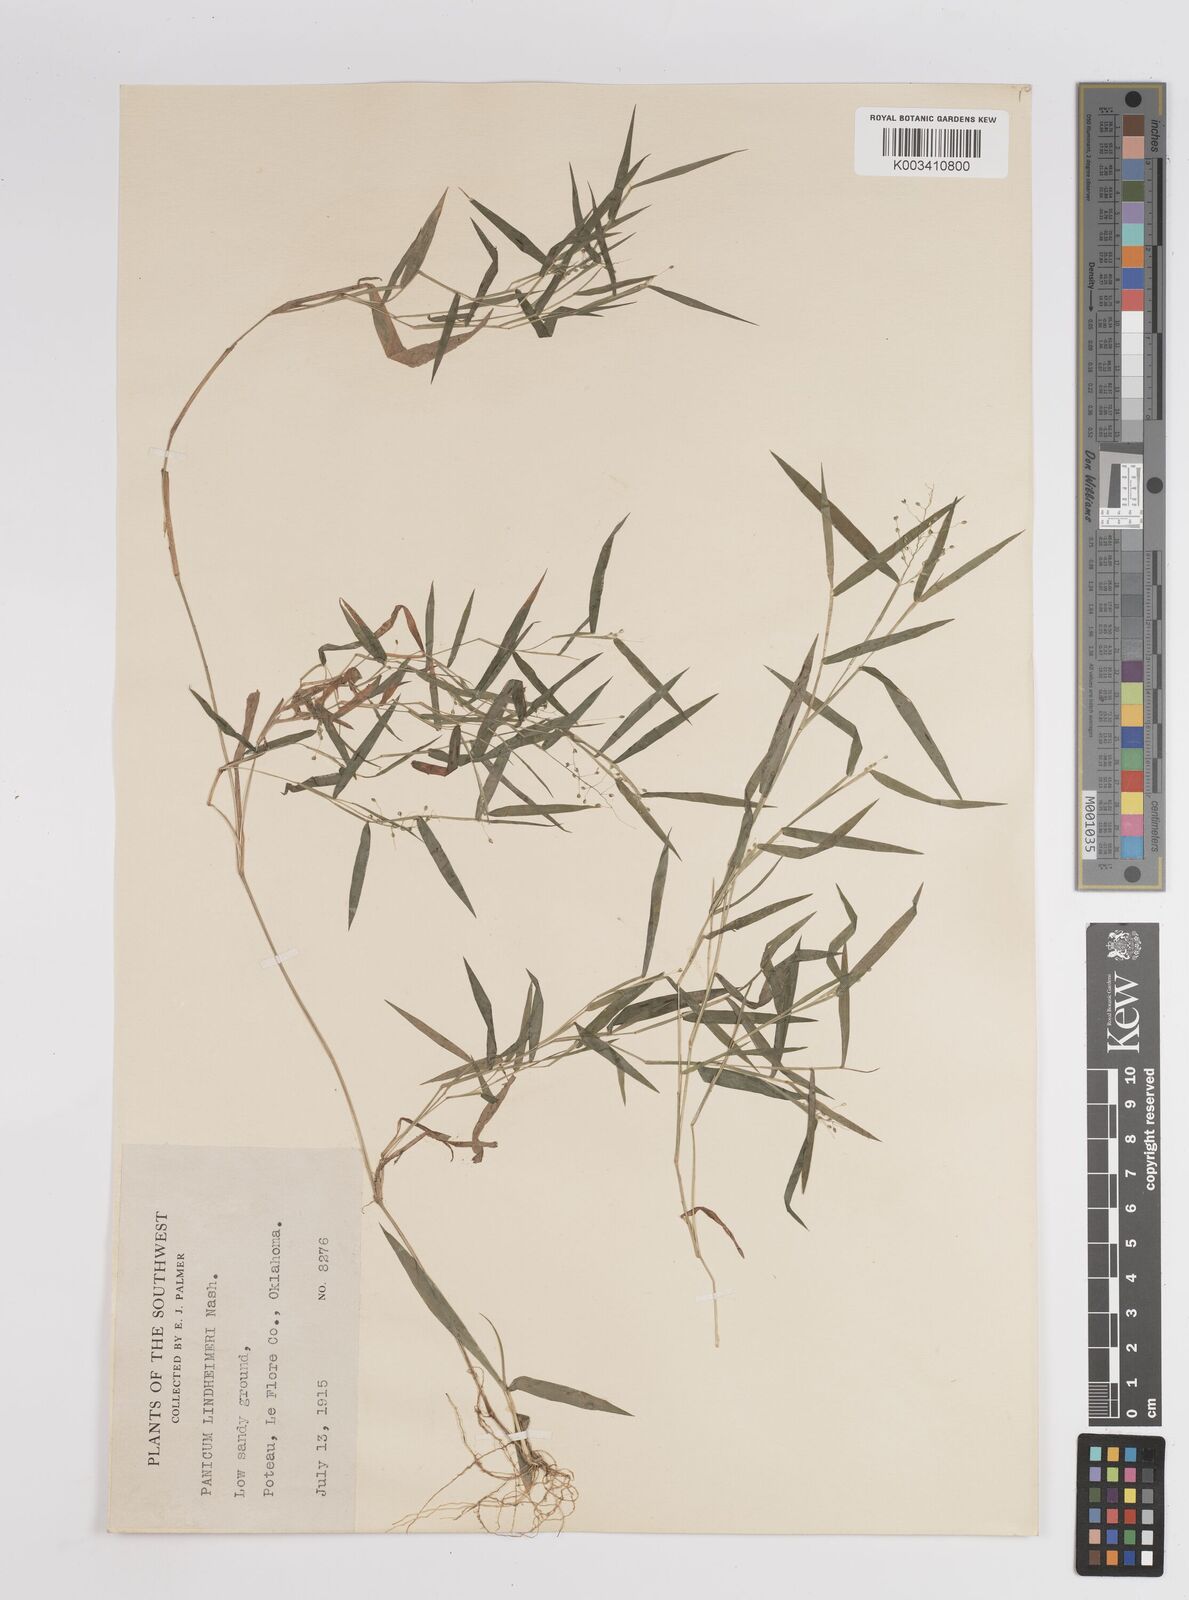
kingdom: Plantae
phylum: Tracheophyta
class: Liliopsida
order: Poales
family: Poaceae
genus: Dichanthelium
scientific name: Dichanthelium acuminatum
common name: Hairy panic grass
